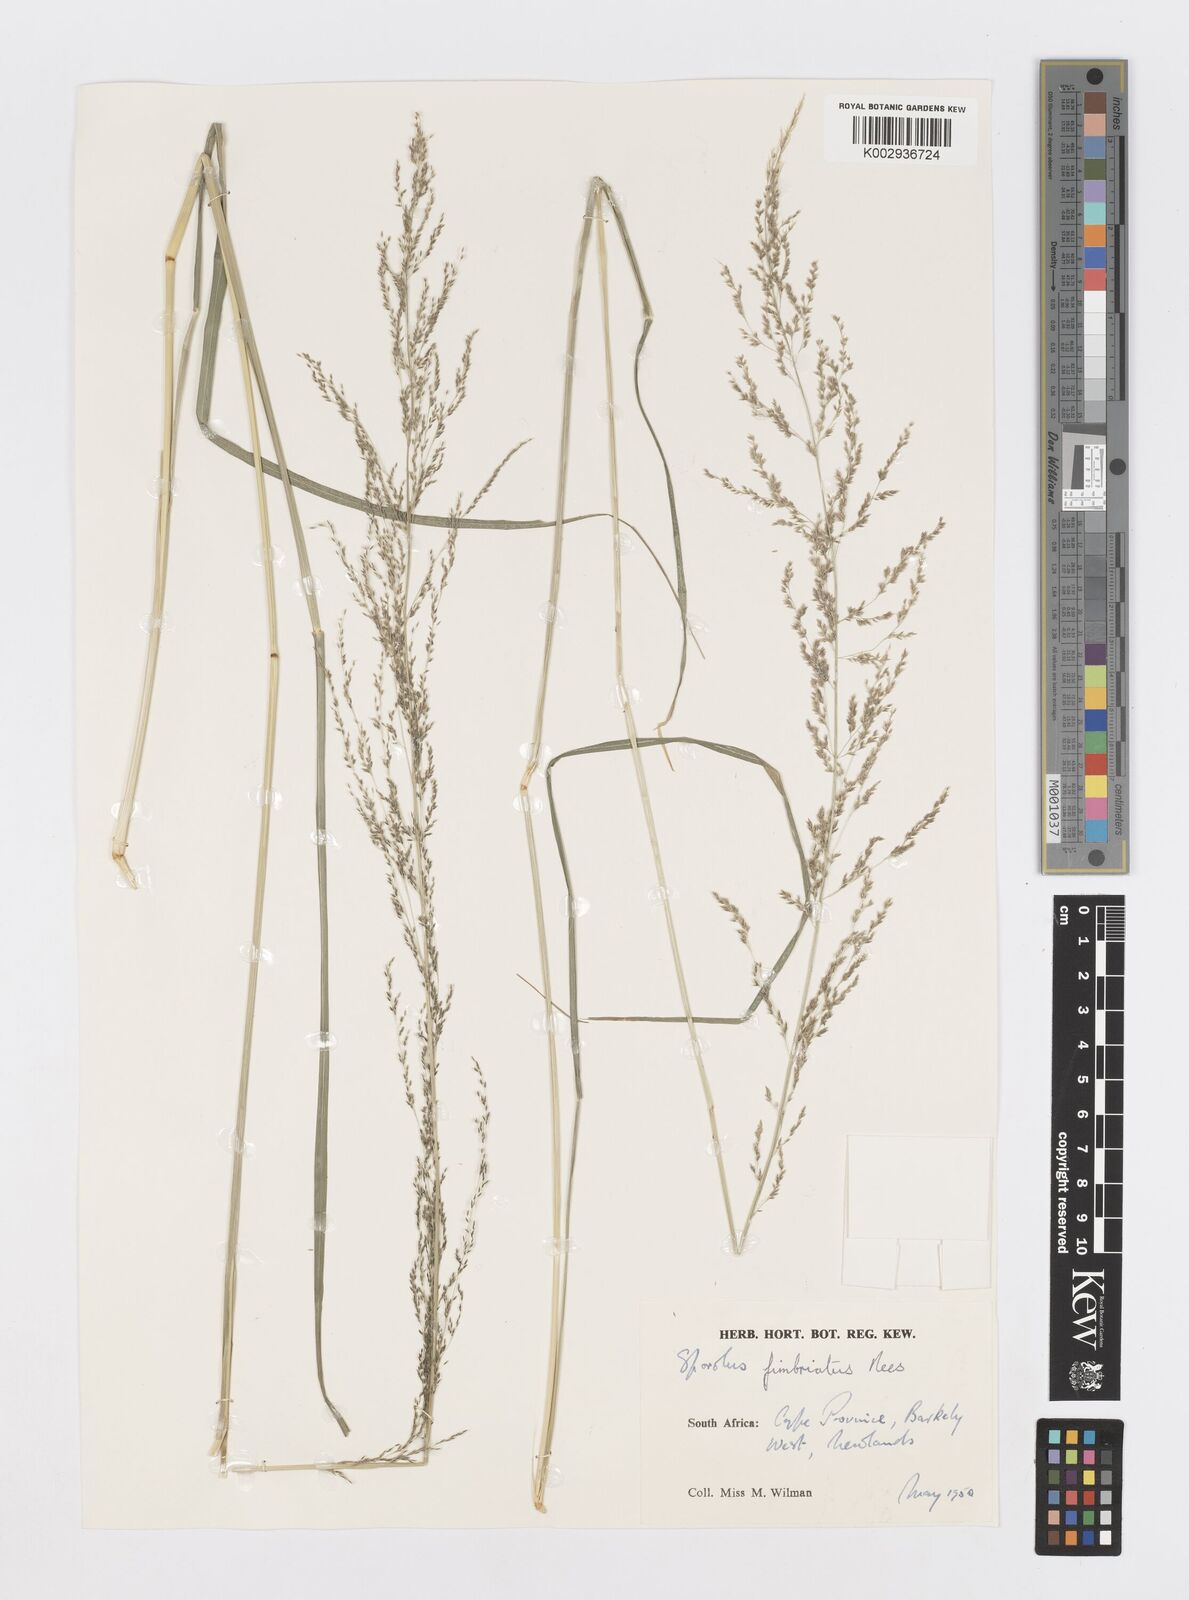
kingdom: Plantae
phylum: Tracheophyta
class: Liliopsida
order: Poales
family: Poaceae
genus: Sporobolus
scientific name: Sporobolus fimbriatus
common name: Fringed dropseed
